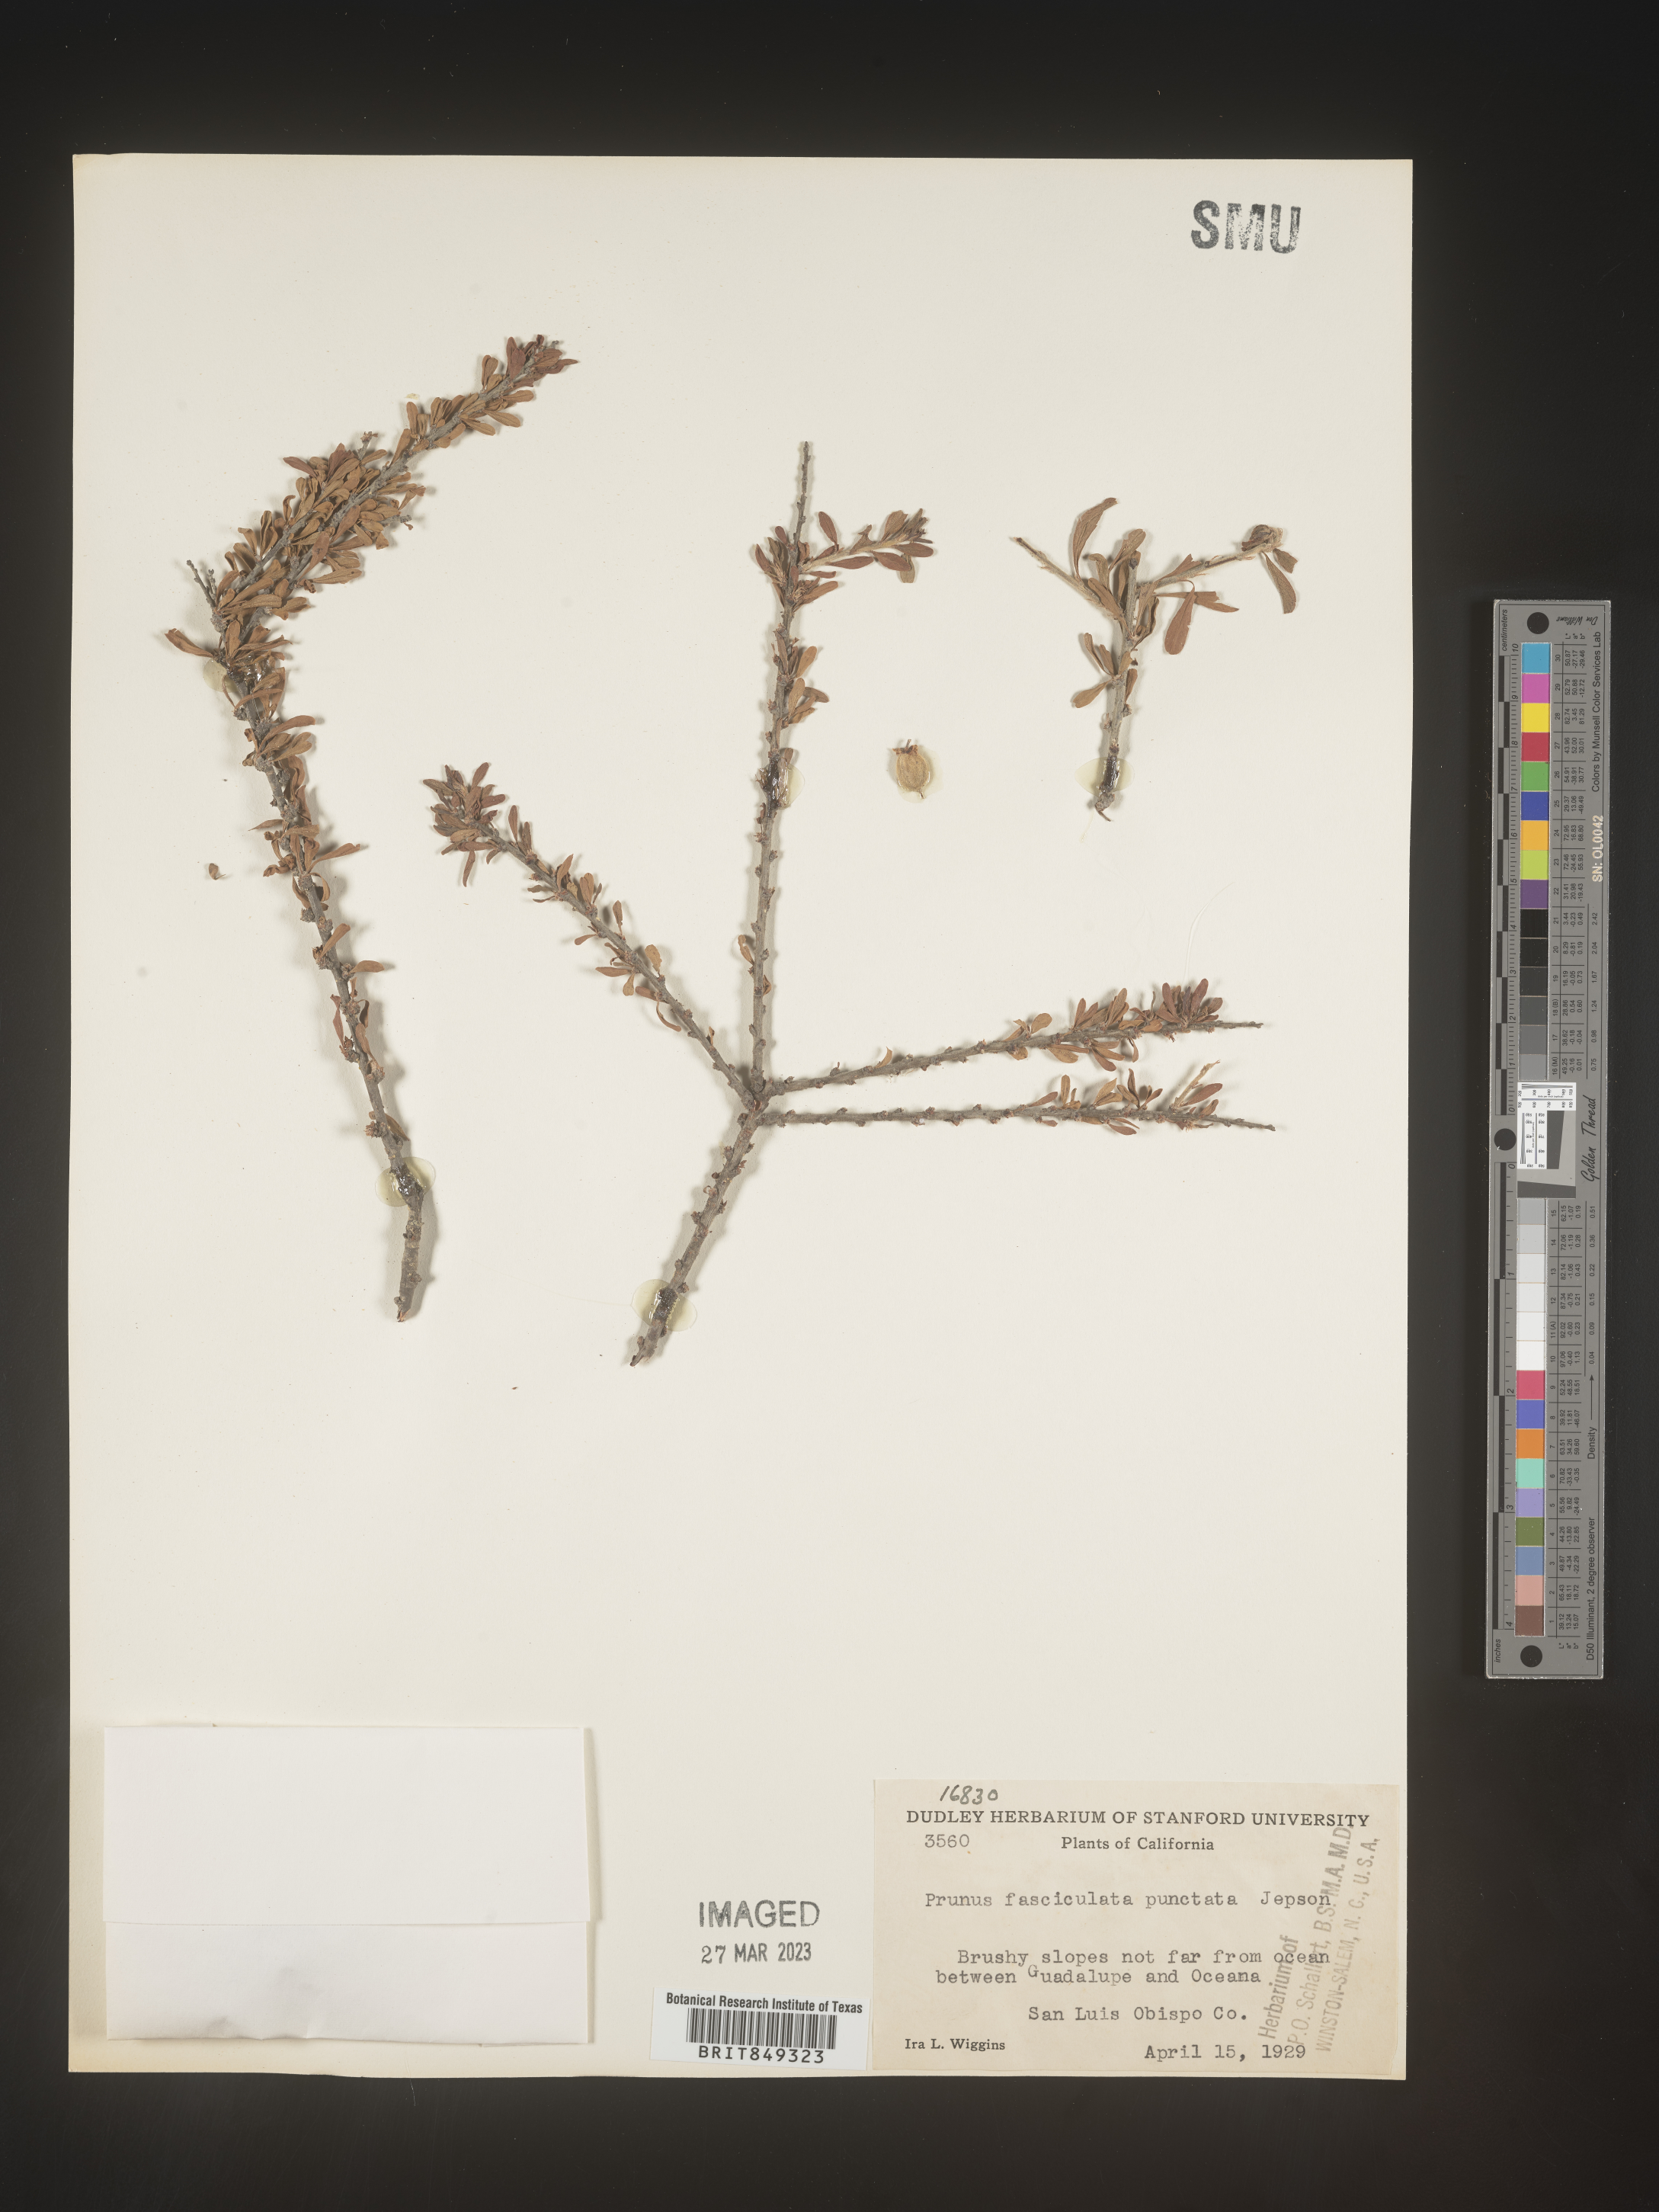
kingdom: Plantae
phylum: Tracheophyta
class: Magnoliopsida
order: Rosales
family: Rosaceae
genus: Prunus
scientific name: Prunus
